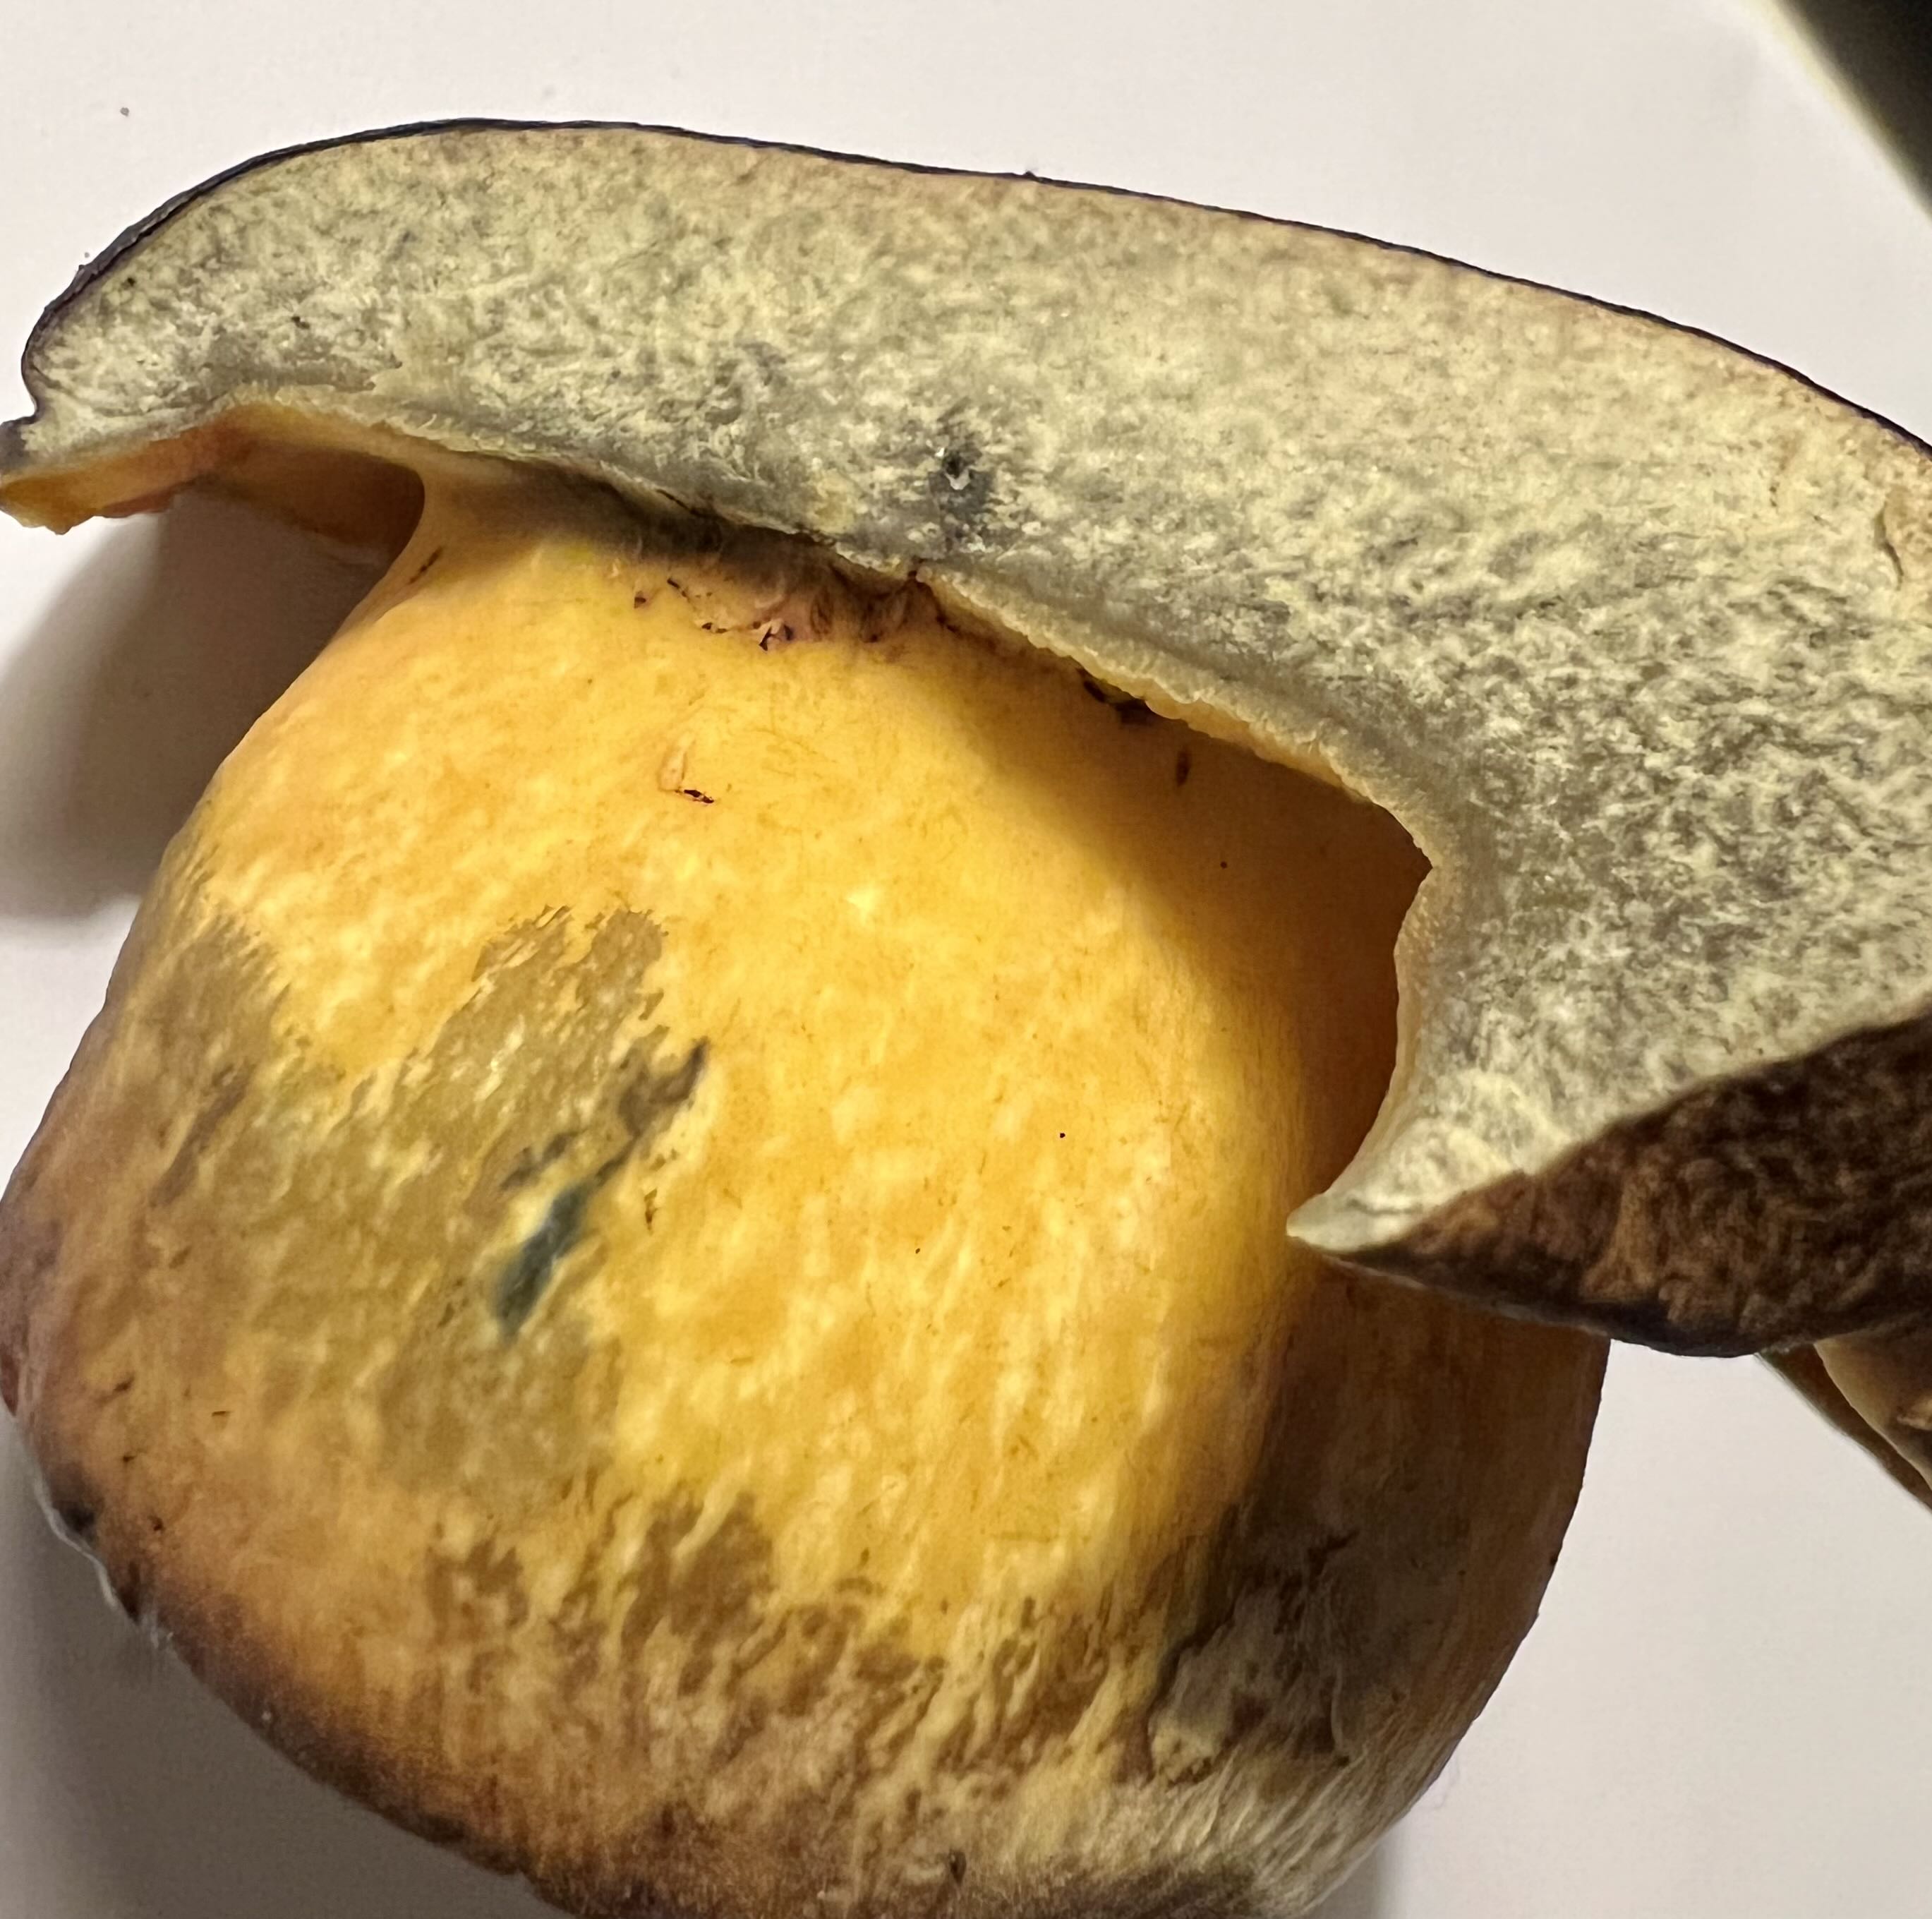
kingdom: Fungi
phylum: Basidiomycota
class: Agaricomycetes
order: Boletales
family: Boletaceae
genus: Cyanoboletus
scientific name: Cyanoboletus pulverulentus
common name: sortblånende rørhat
